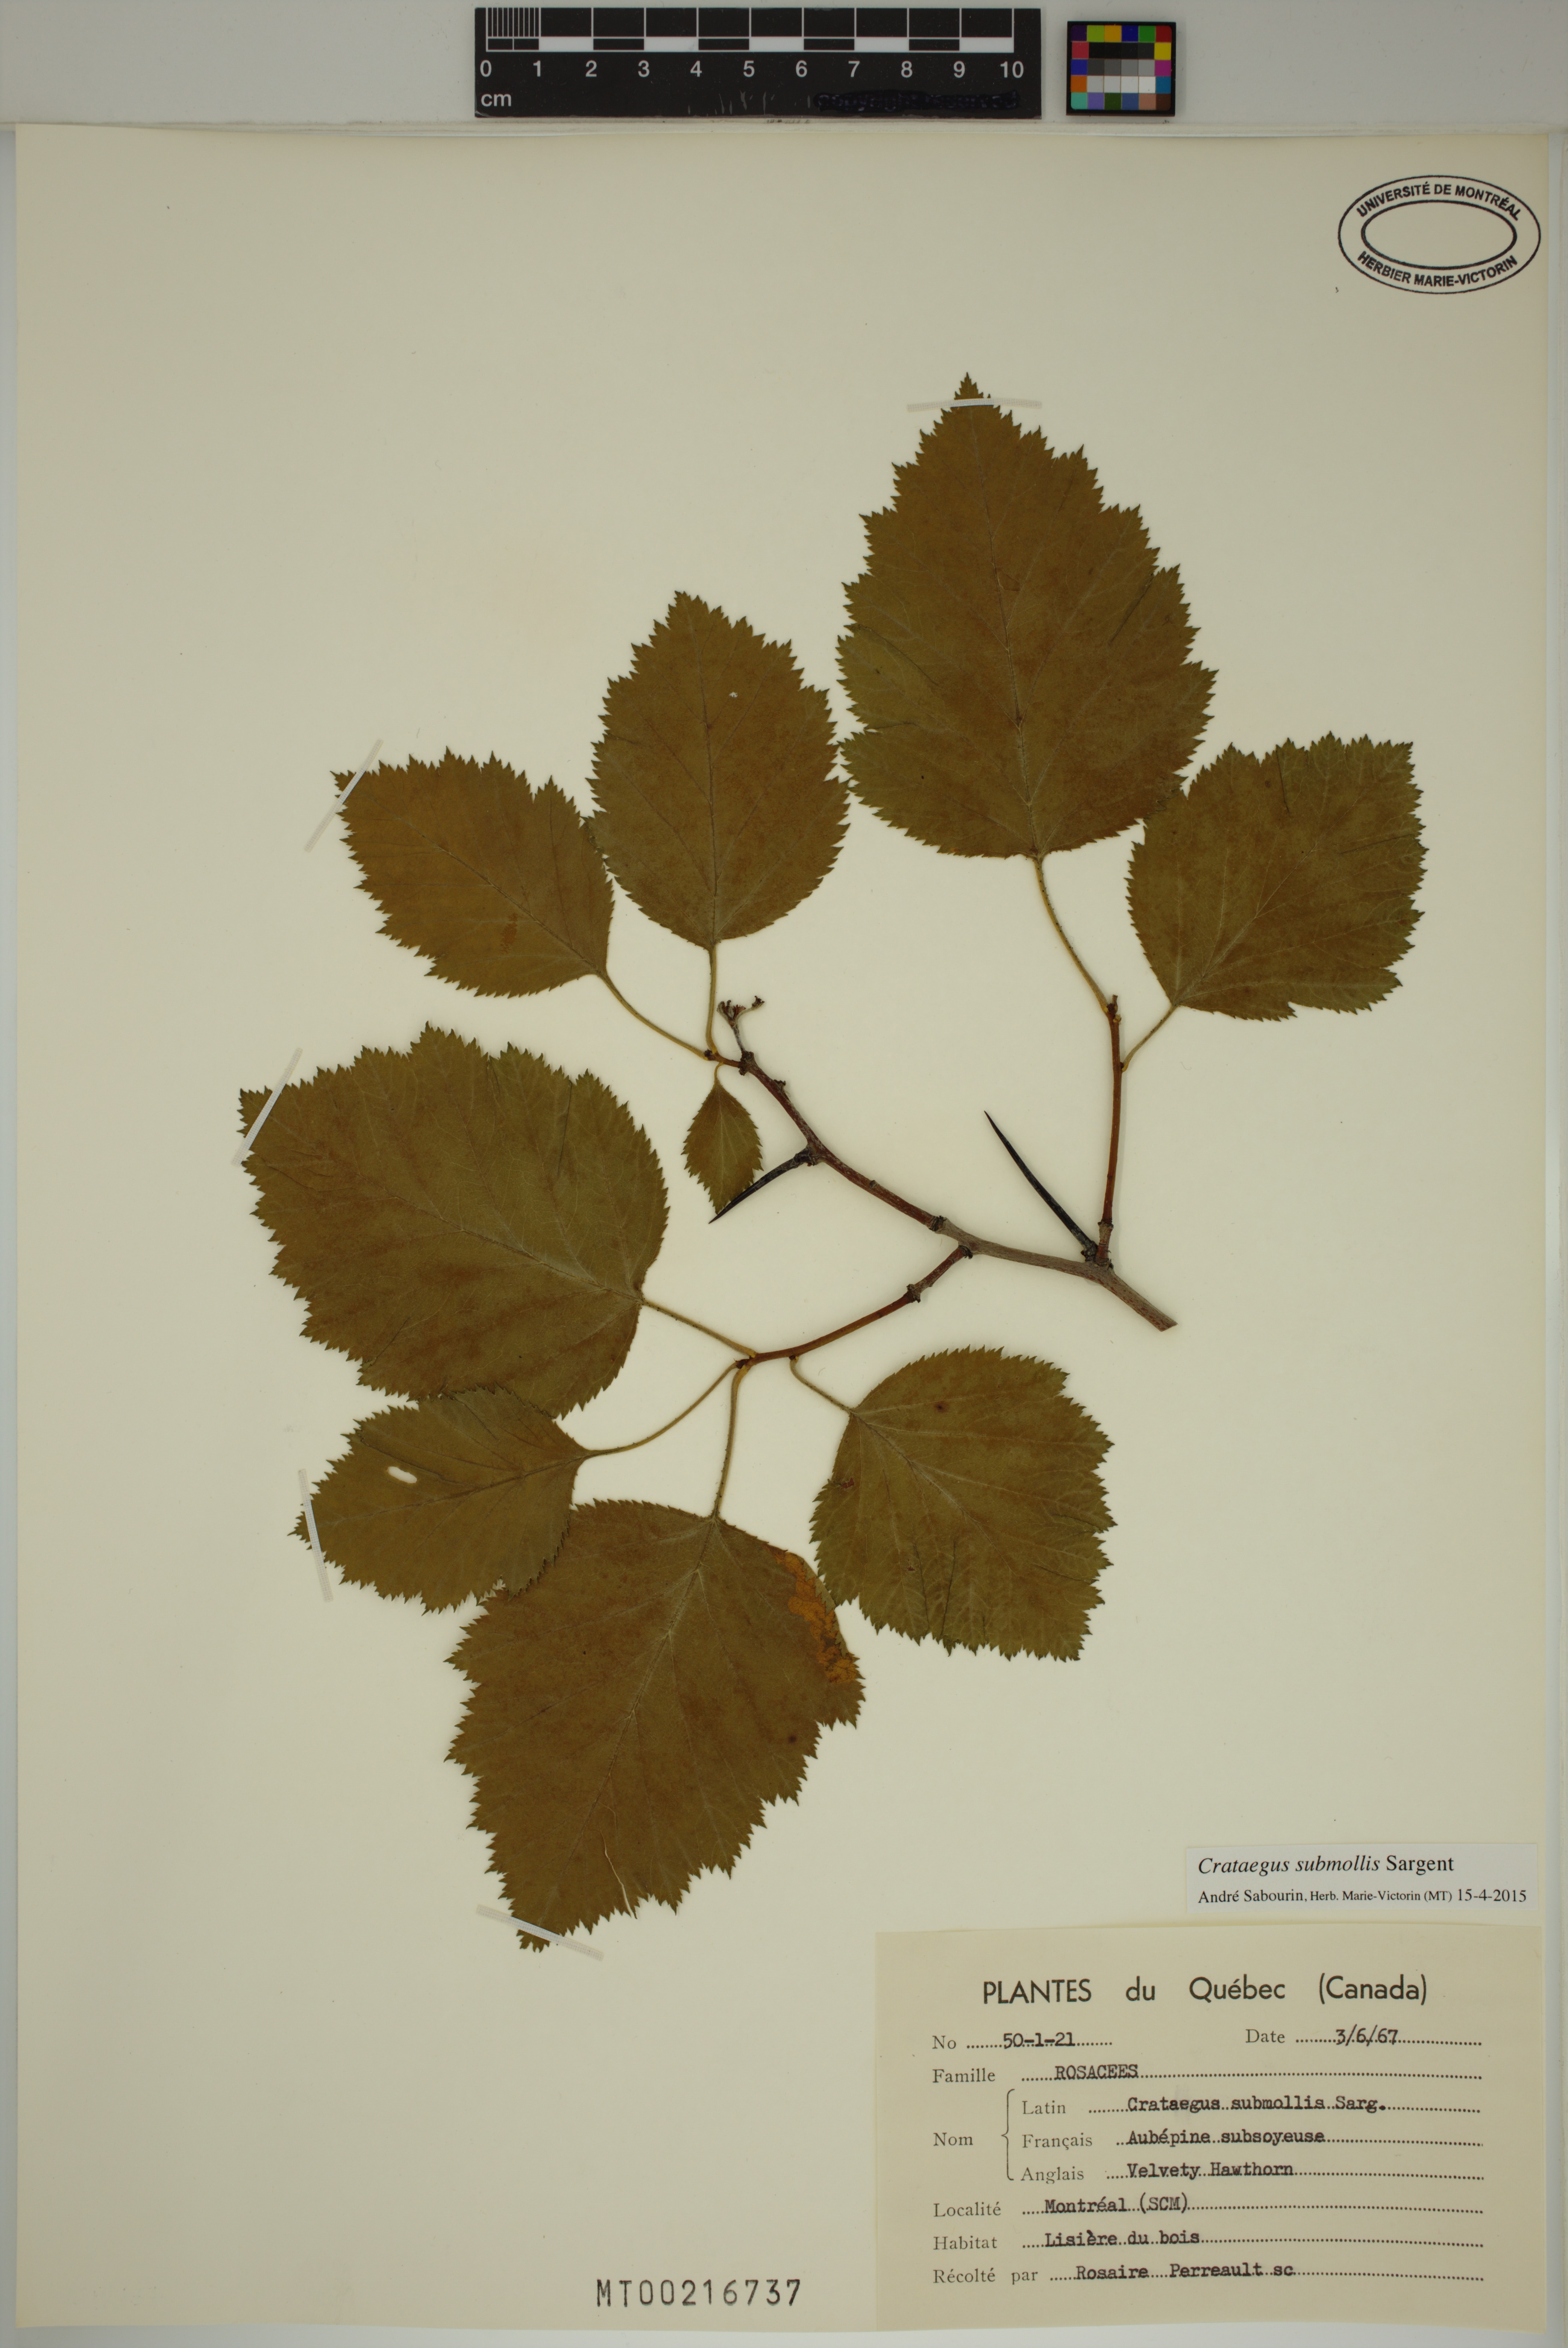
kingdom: Plantae
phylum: Tracheophyta
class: Magnoliopsida
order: Rosales
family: Rosaceae
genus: Crataegus
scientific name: Crataegus submollis
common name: Hairy cockspurthorn
